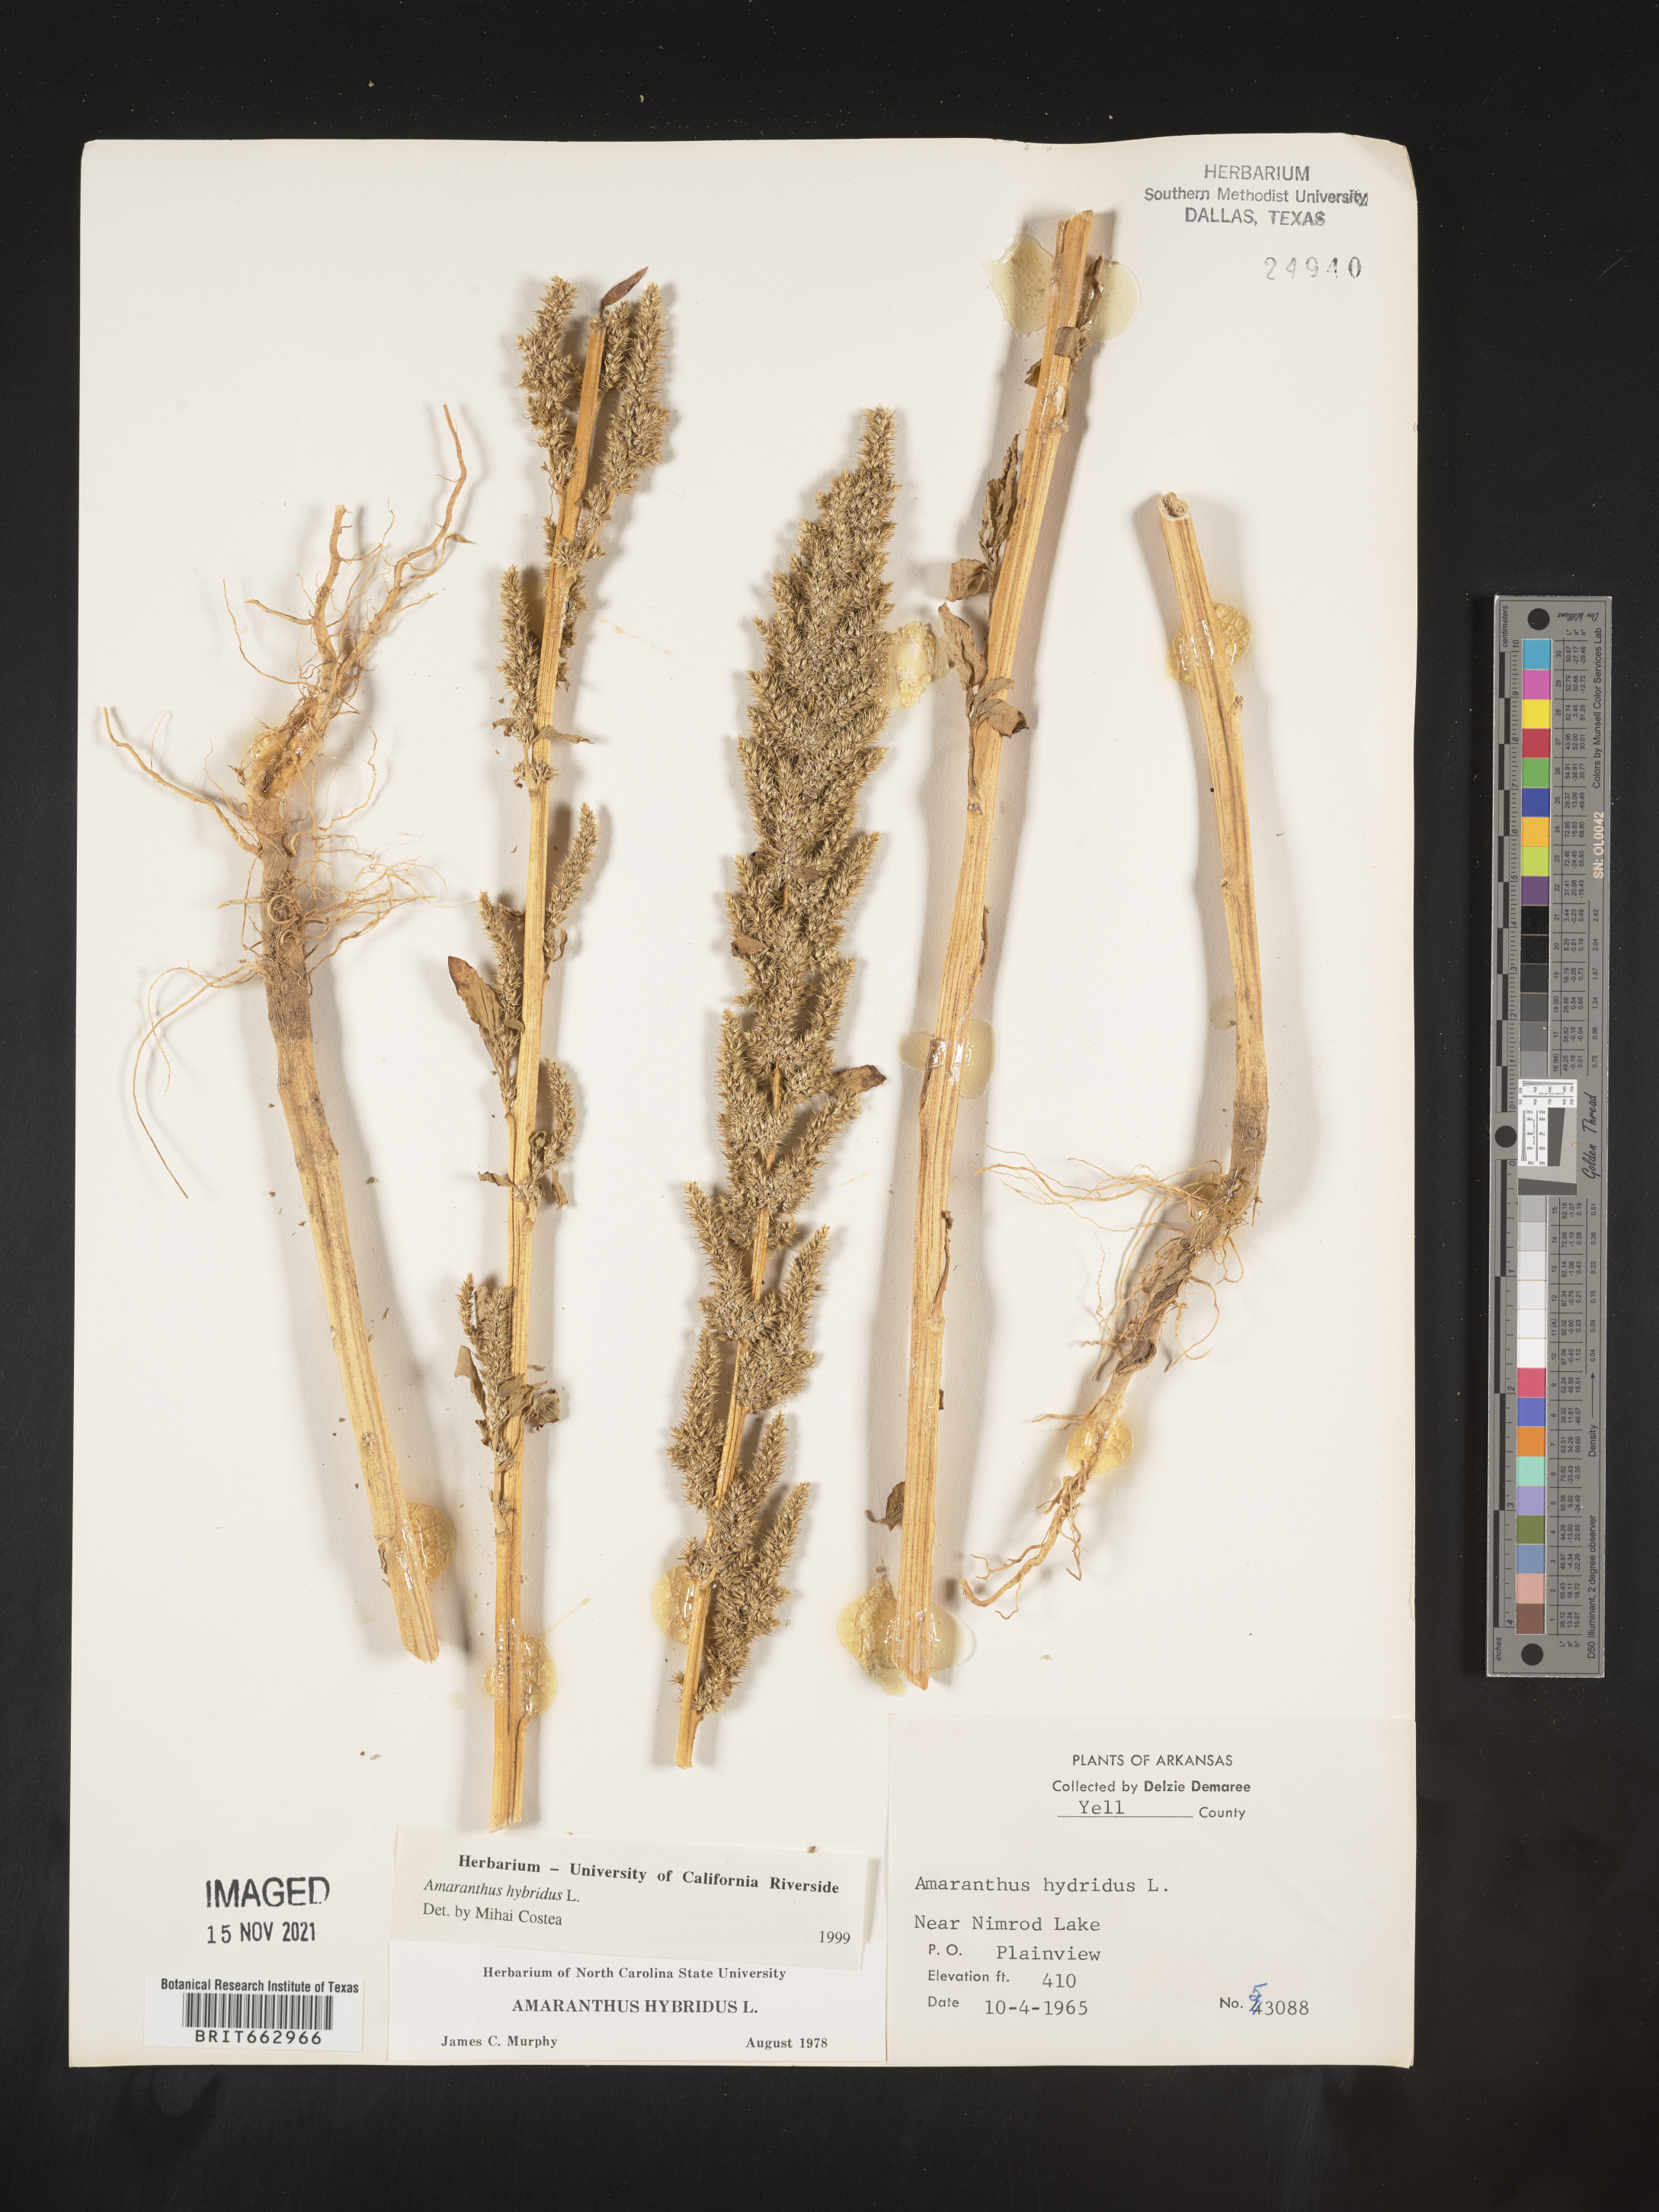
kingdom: Plantae
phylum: Tracheophyta
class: Magnoliopsida
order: Caryophyllales
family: Amaranthaceae
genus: Amaranthus
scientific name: Amaranthus hybridus
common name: Green amaranth
